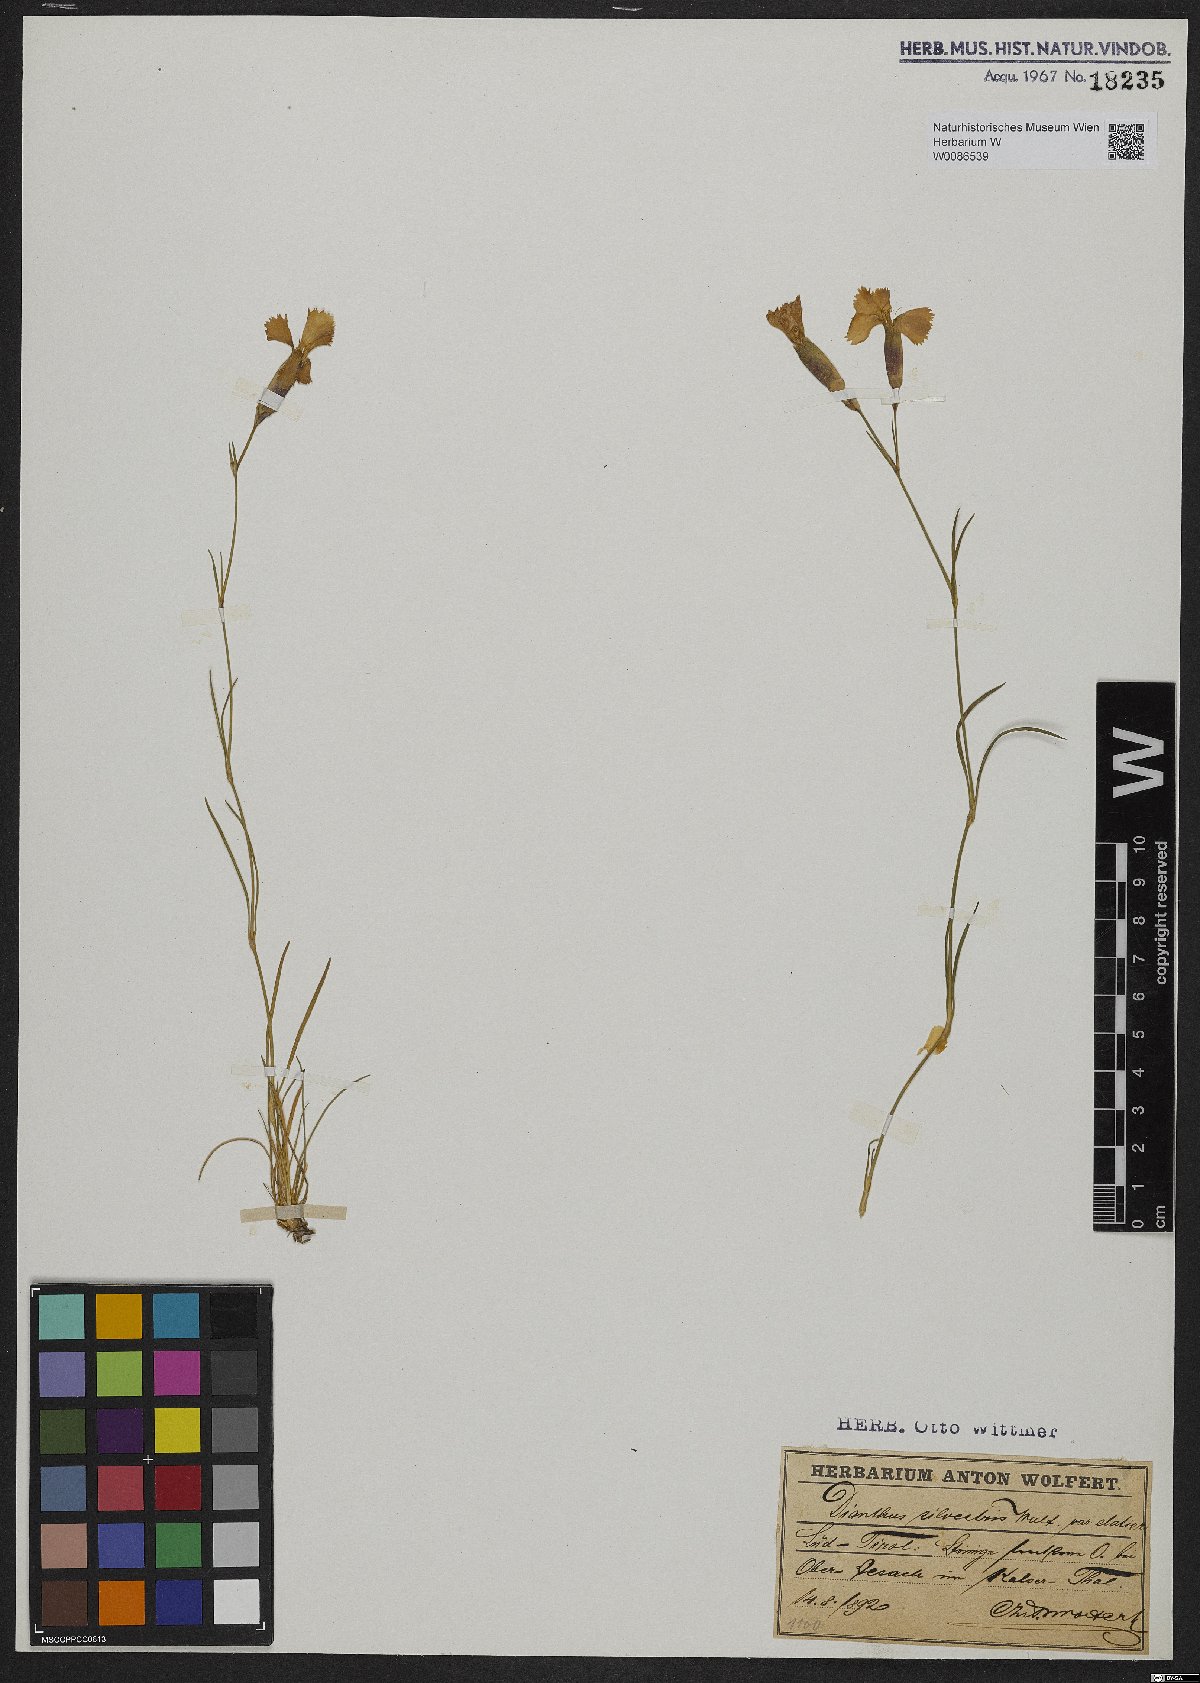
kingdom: Plantae
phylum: Tracheophyta
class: Magnoliopsida
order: Caryophyllales
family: Caryophyllaceae
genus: Dianthus
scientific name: Dianthus sylvestris
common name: Wood pink
